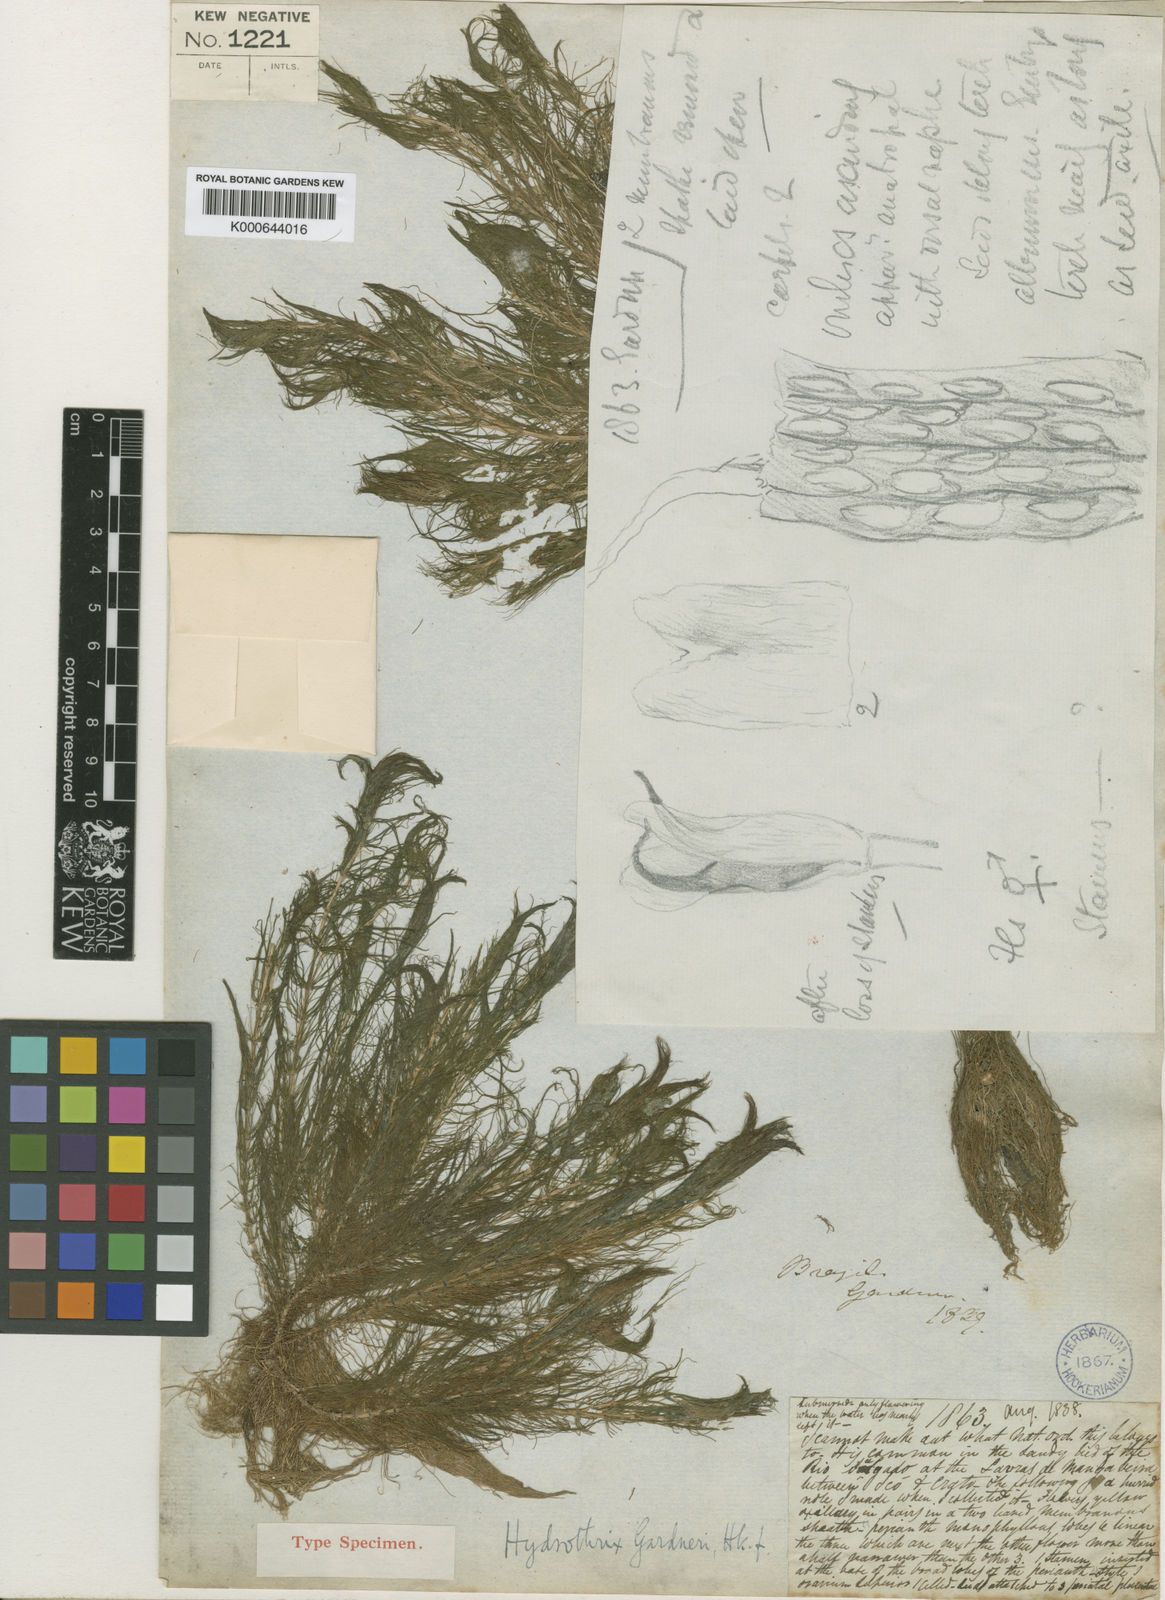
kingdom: Plantae
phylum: Tracheophyta
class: Liliopsida
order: Commelinales
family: Pontederiaceae
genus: Heteranthera
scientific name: Heteranthera gardneri
